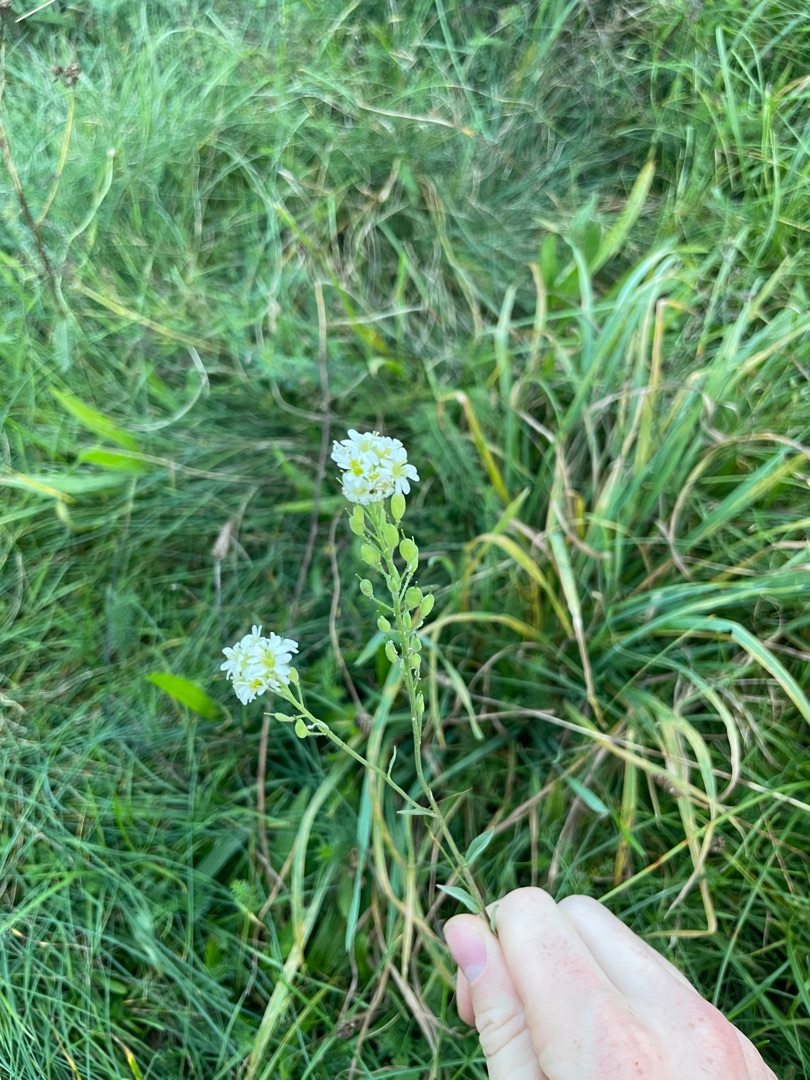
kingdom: Plantae
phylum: Tracheophyta
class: Magnoliopsida
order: Brassicales
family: Brassicaceae
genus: Berteroa
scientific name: Berteroa incana
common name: Kløvplade
